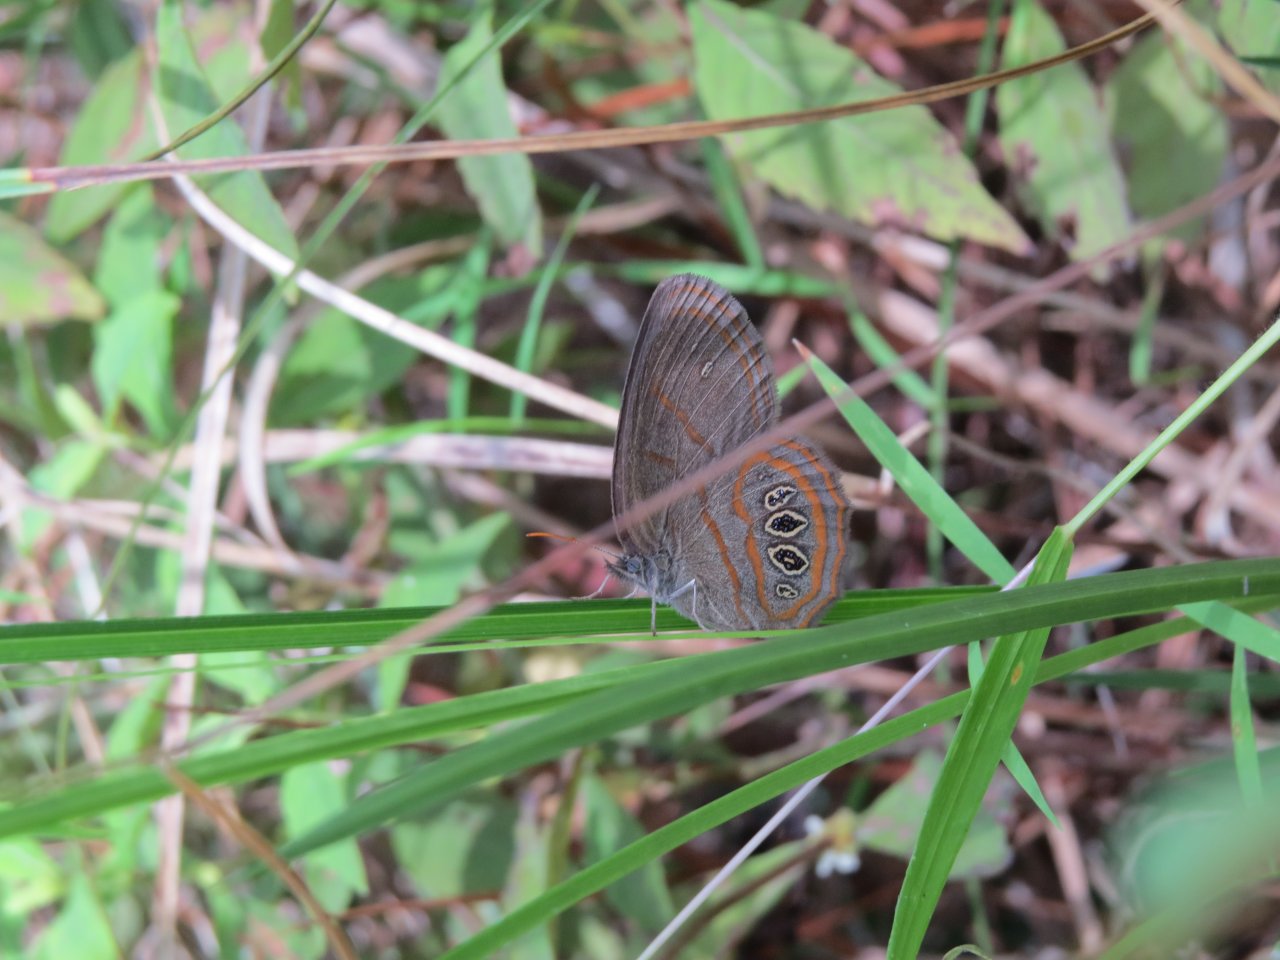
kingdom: Animalia
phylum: Arthropoda
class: Insecta
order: Lepidoptera
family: Nymphalidae
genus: Euptychia
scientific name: Euptychia phocion
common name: Georgia Satyr
